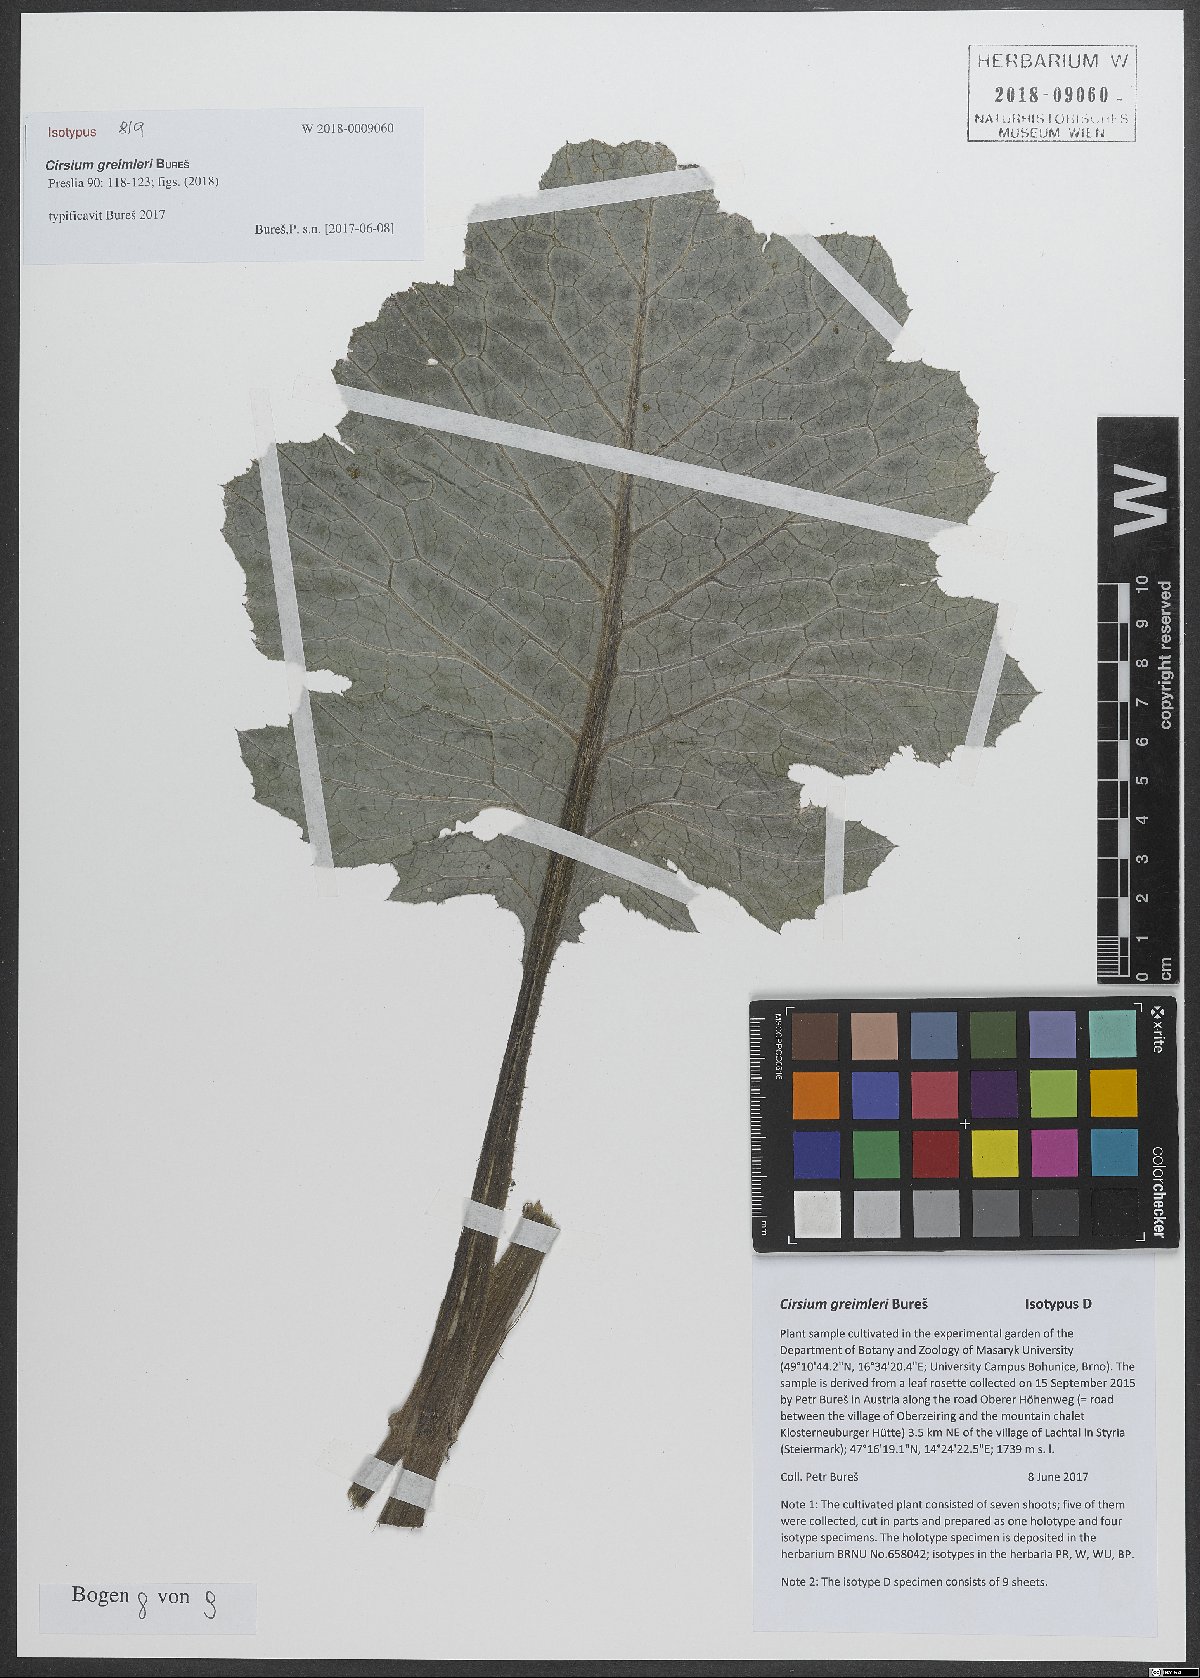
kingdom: Plantae
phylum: Tracheophyta
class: Magnoliopsida
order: Asterales
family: Asteraceae
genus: Cirsium
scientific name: Cirsium greimleri
